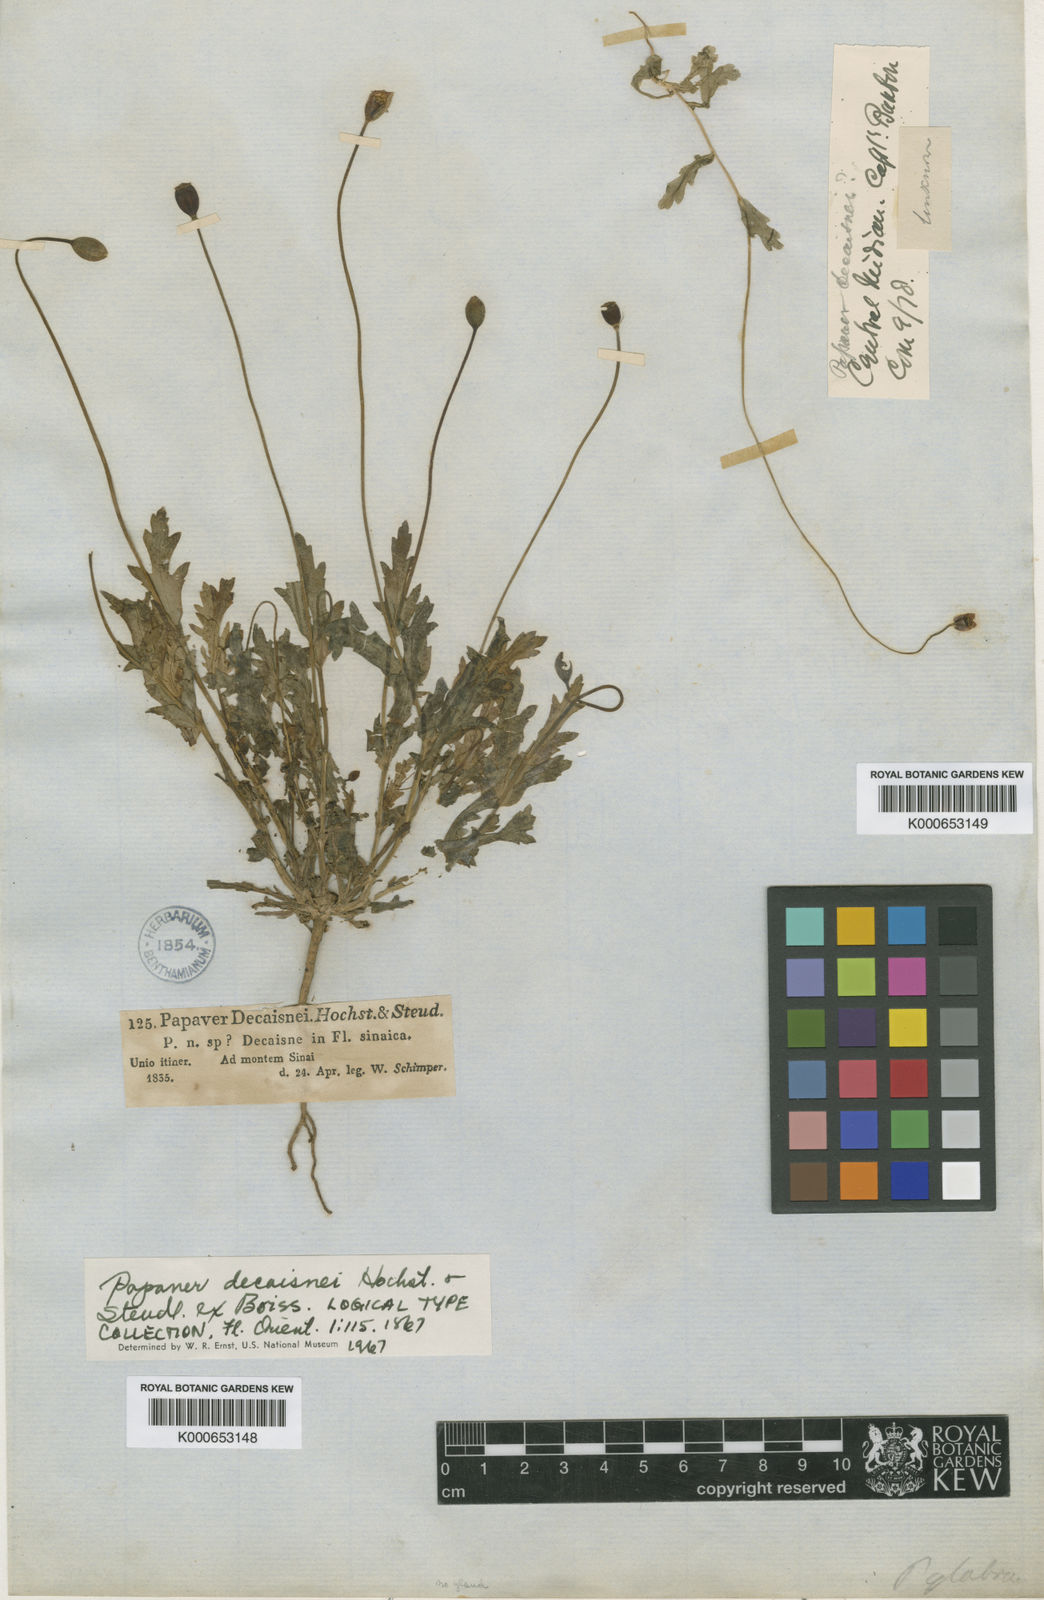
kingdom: Plantae
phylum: Tracheophyta
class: Magnoliopsida
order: Ranunculales
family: Papaveraceae
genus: Papaver
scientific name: Papaver
